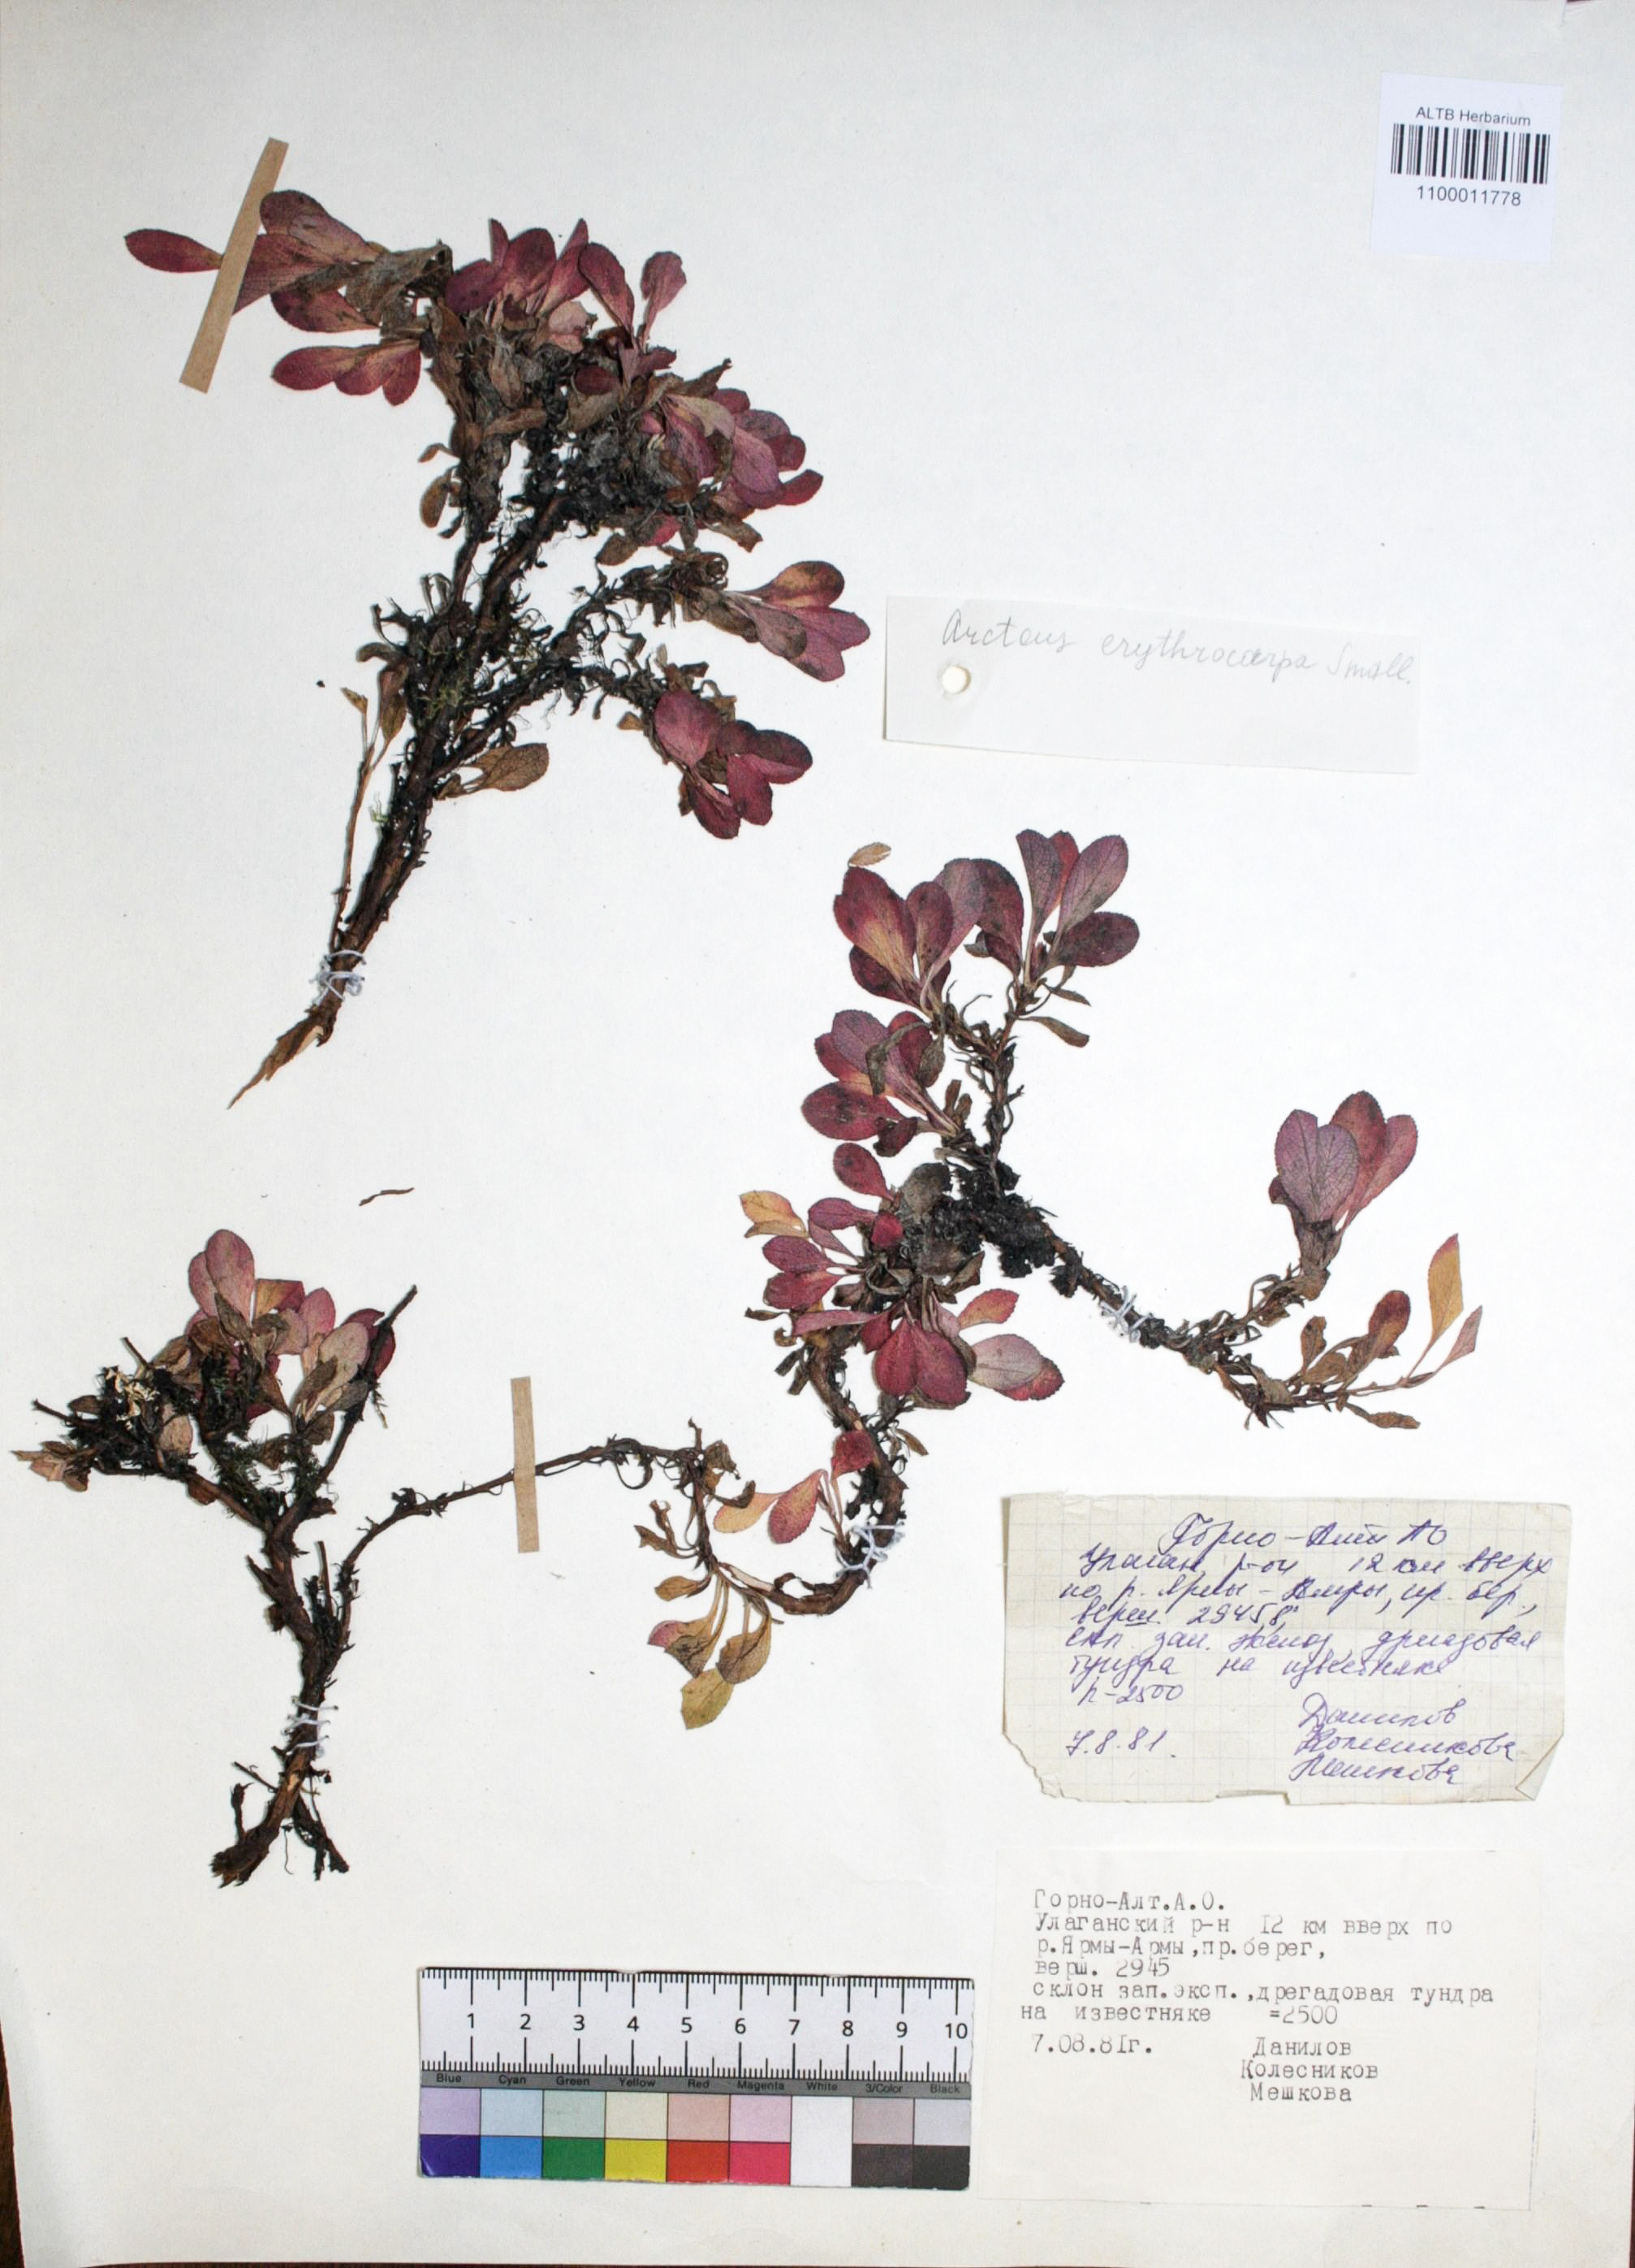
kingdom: Plantae
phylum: Tracheophyta
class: Magnoliopsida
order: Ericales
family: Ericaceae
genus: Arctostaphylos
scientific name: Arctostaphylos rubra
